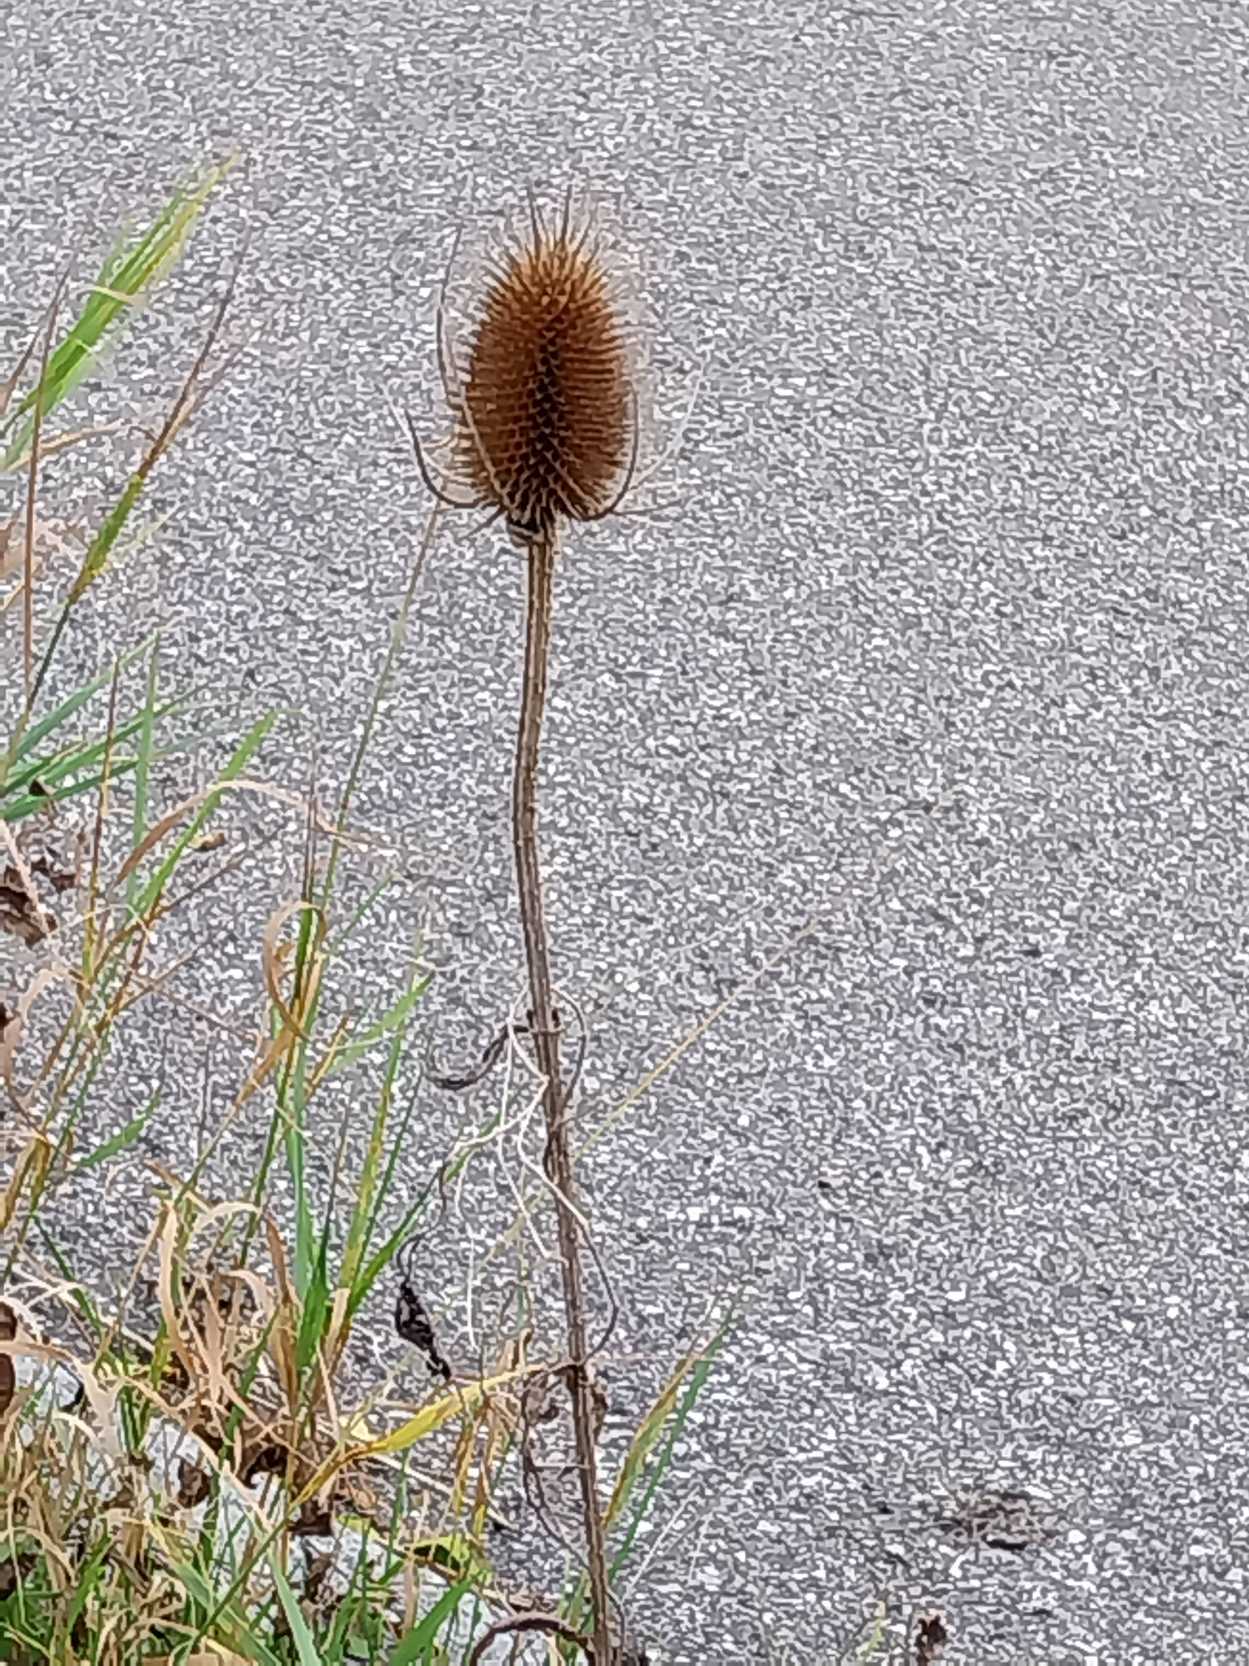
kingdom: Plantae
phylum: Tracheophyta
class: Magnoliopsida
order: Dipsacales
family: Caprifoliaceae
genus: Dipsacus
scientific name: Dipsacus fullonum
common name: Gærde-kartebolle
